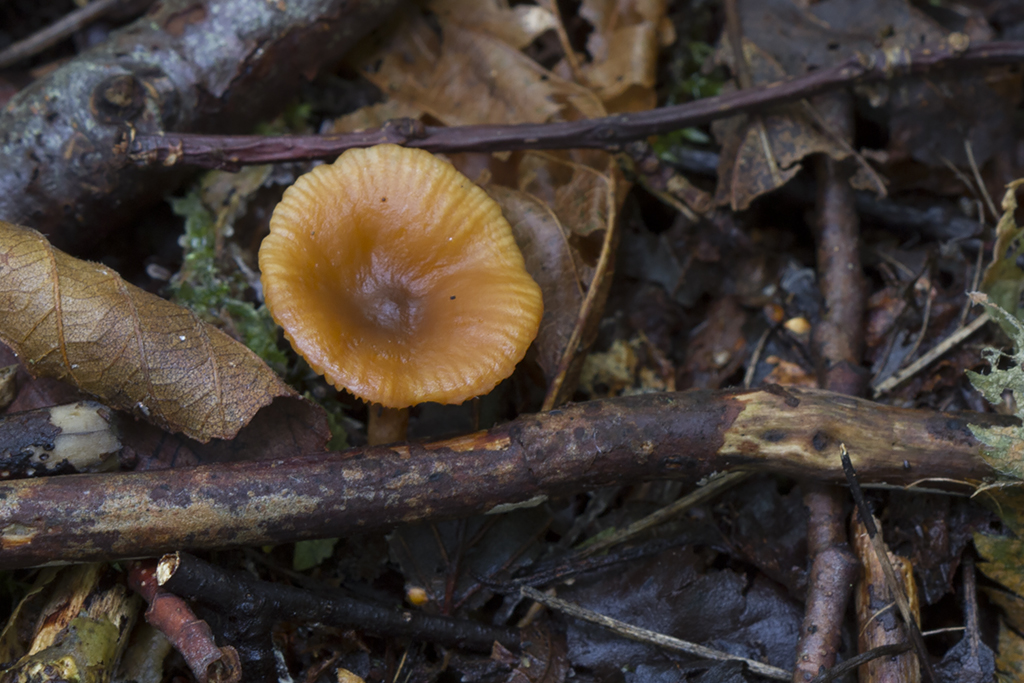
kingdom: Fungi
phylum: Basidiomycota
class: Agaricomycetes
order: Russulales
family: Russulaceae
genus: Lactarius
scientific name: Lactarius obscuratus
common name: elle-mælkehat
